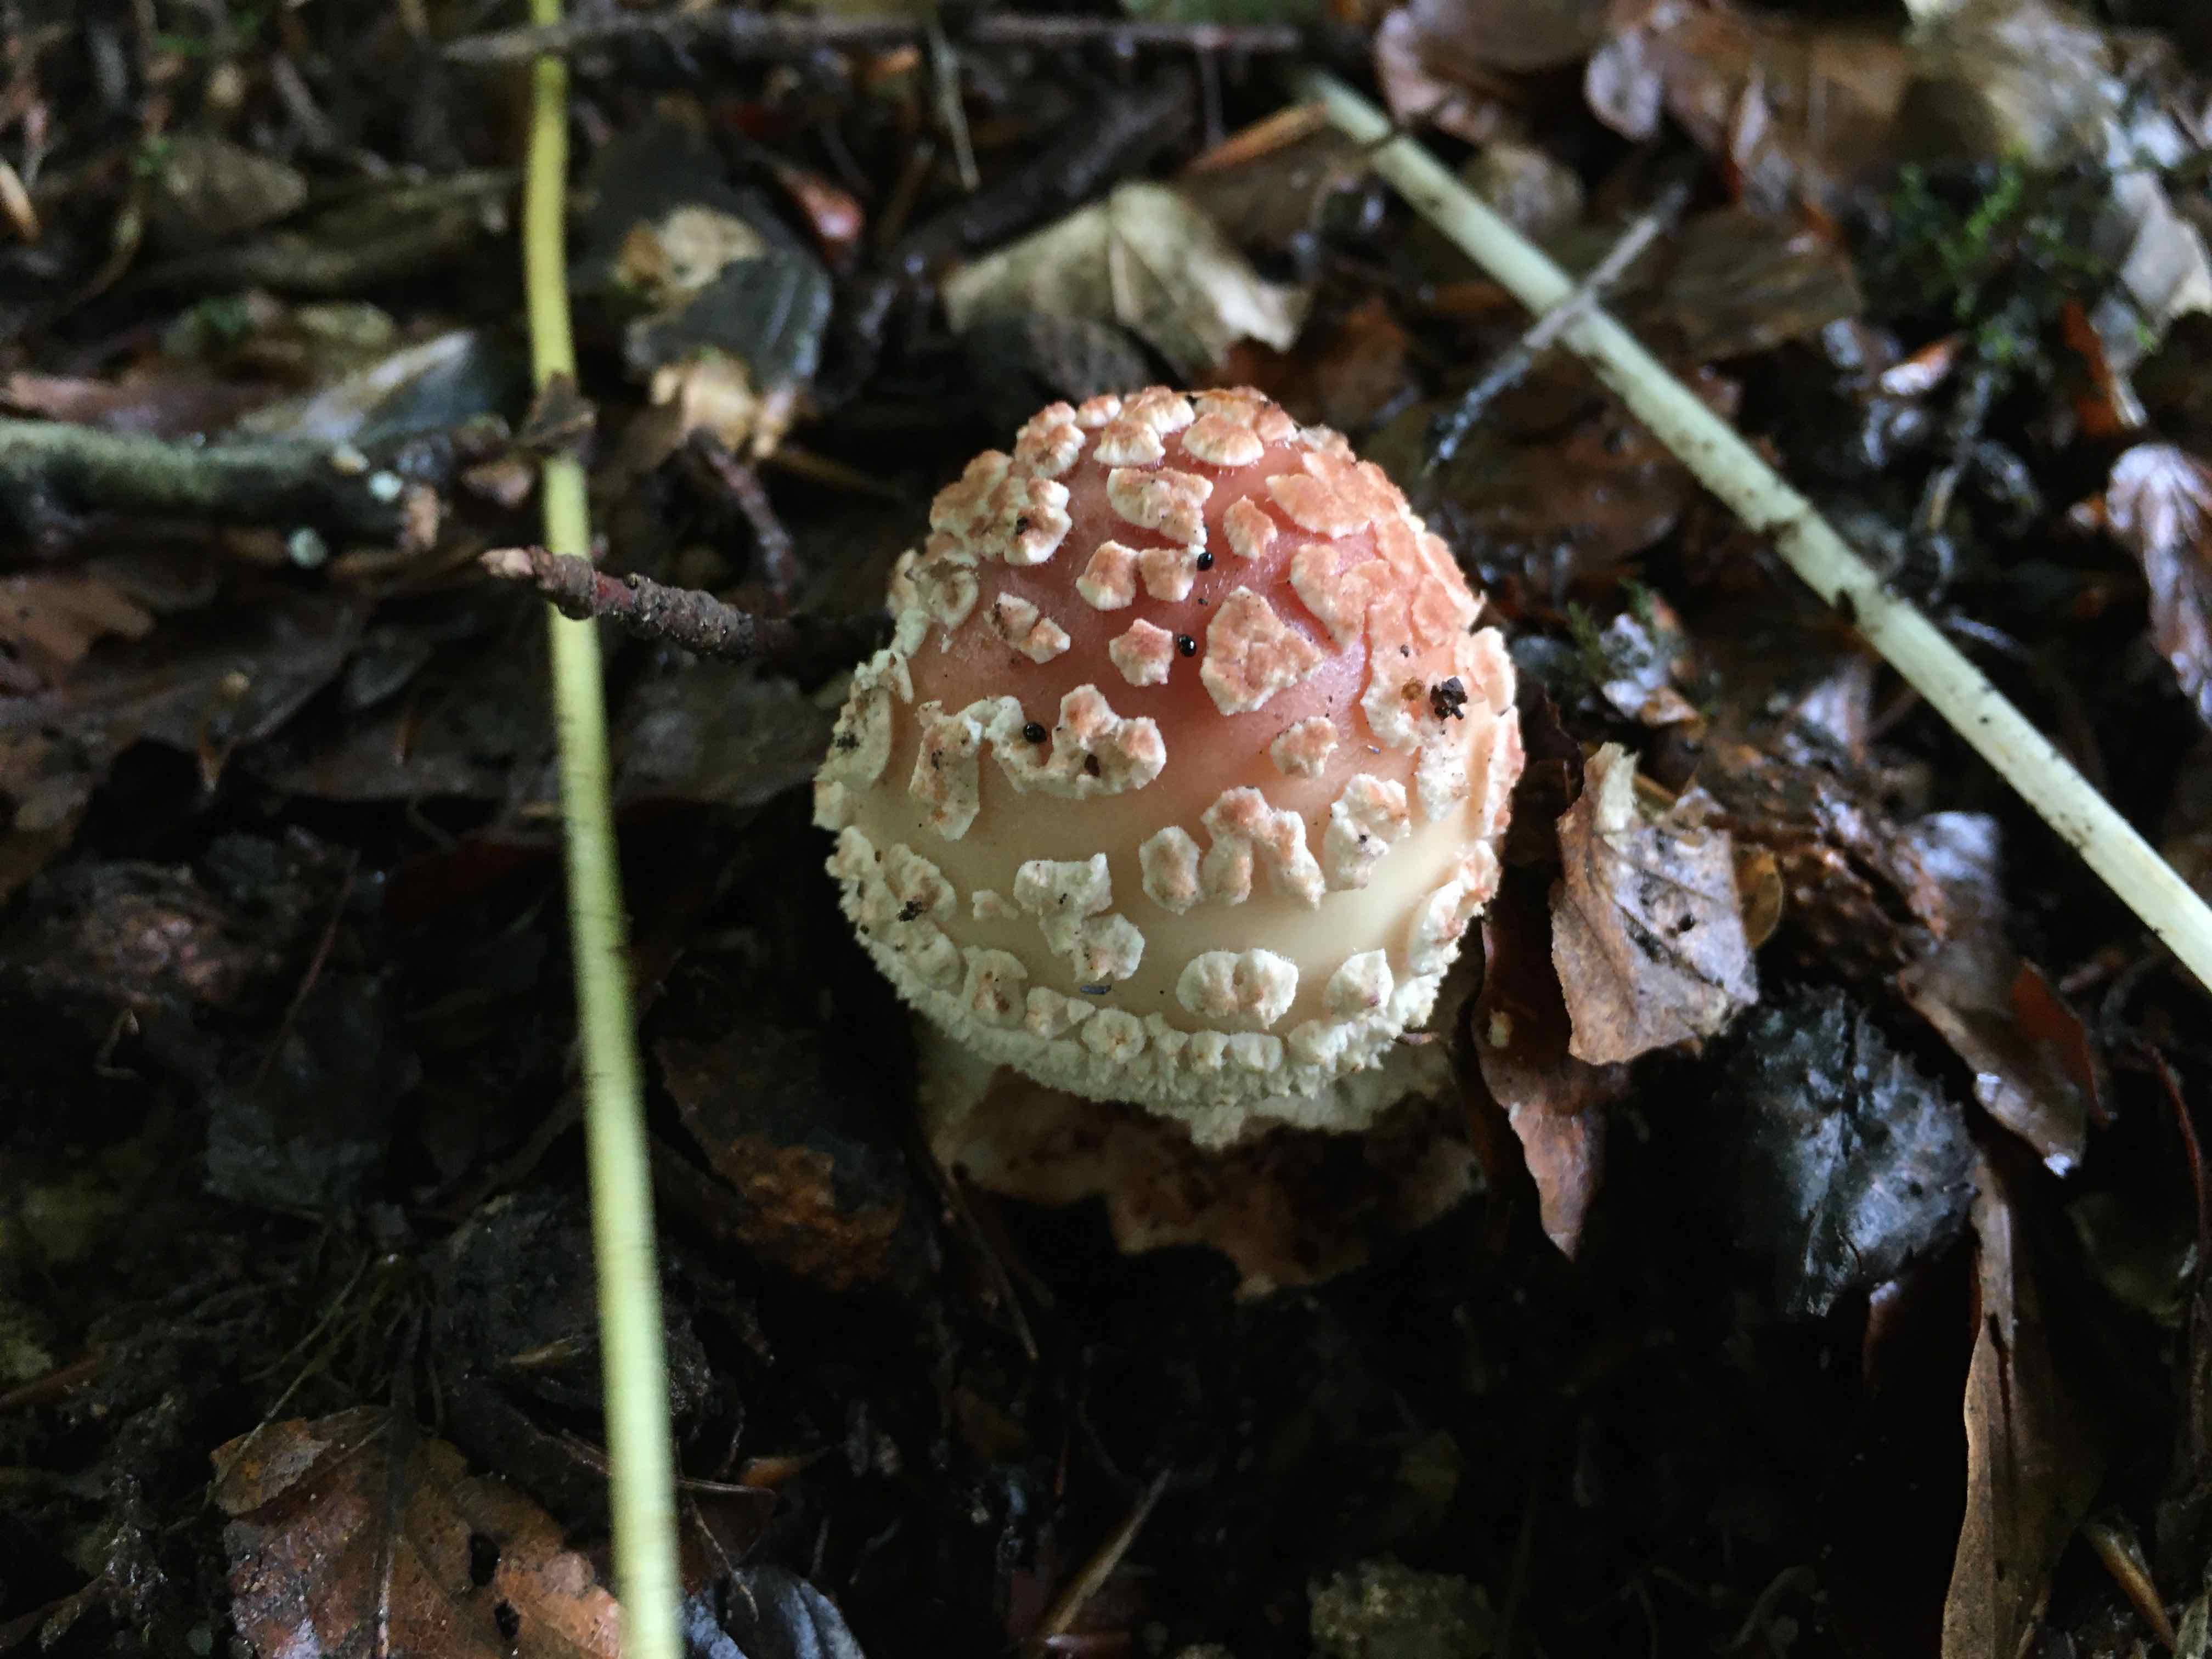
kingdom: Fungi
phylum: Basidiomycota
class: Agaricomycetes
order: Agaricales
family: Amanitaceae
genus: Amanita
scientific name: Amanita rubescens
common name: rødmende fluesvamp
